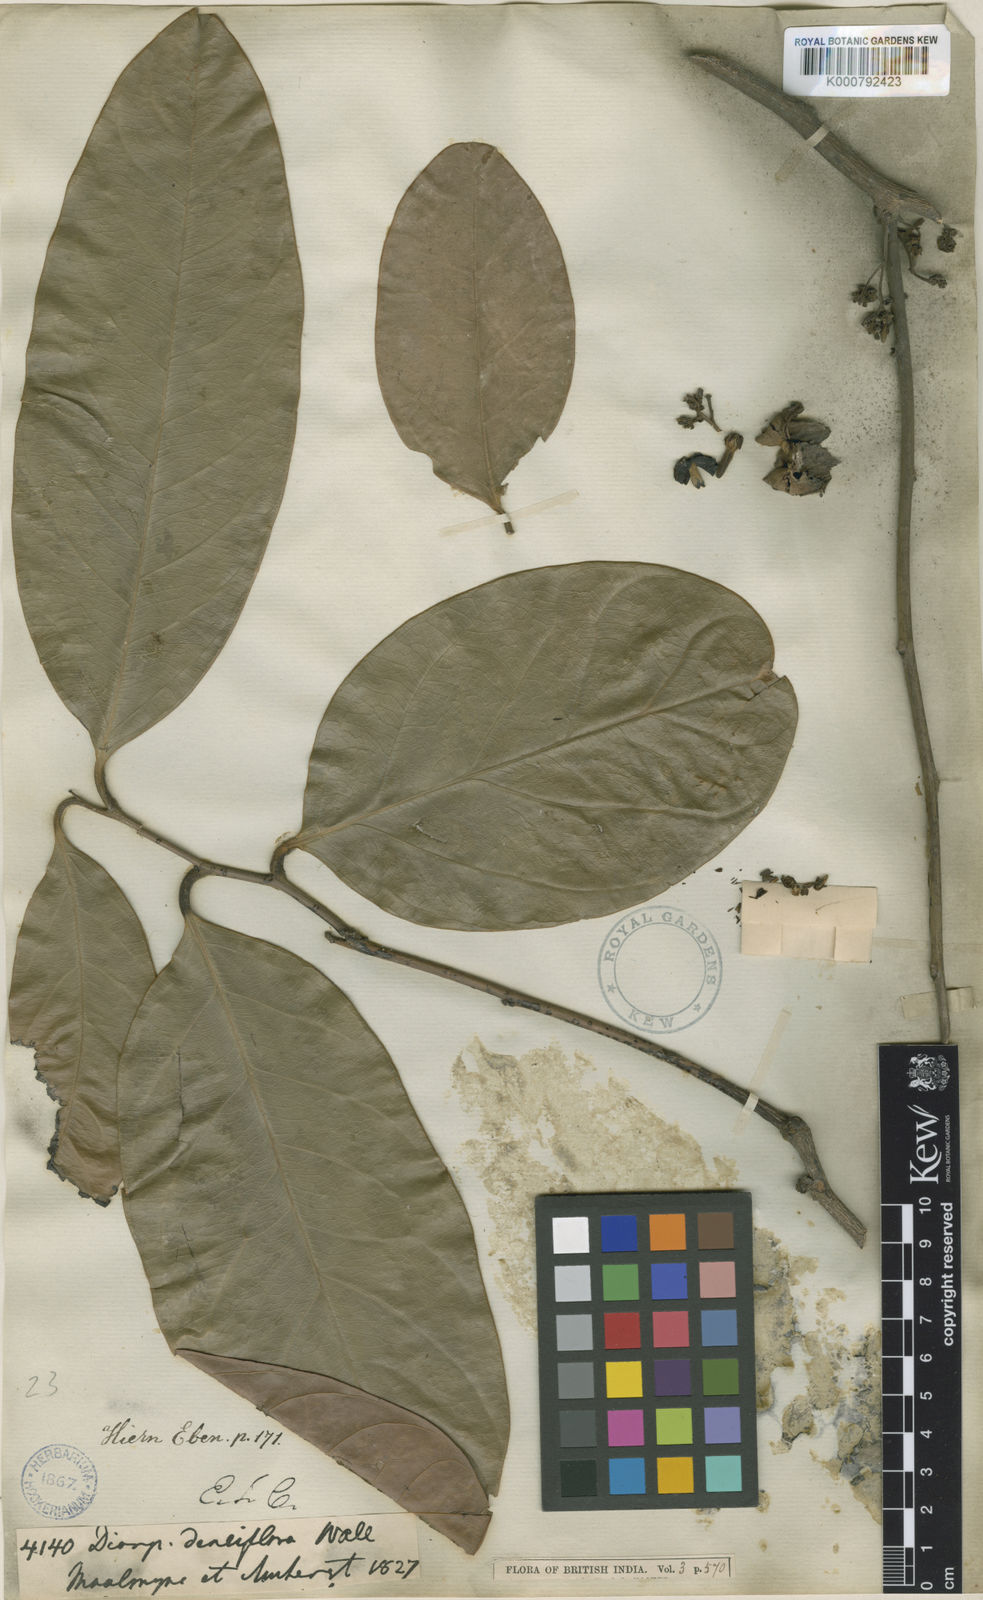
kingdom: Plantae
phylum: Tracheophyta
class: Magnoliopsida
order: Ericales
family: Ebenaceae
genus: Diospyros
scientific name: Diospyros
